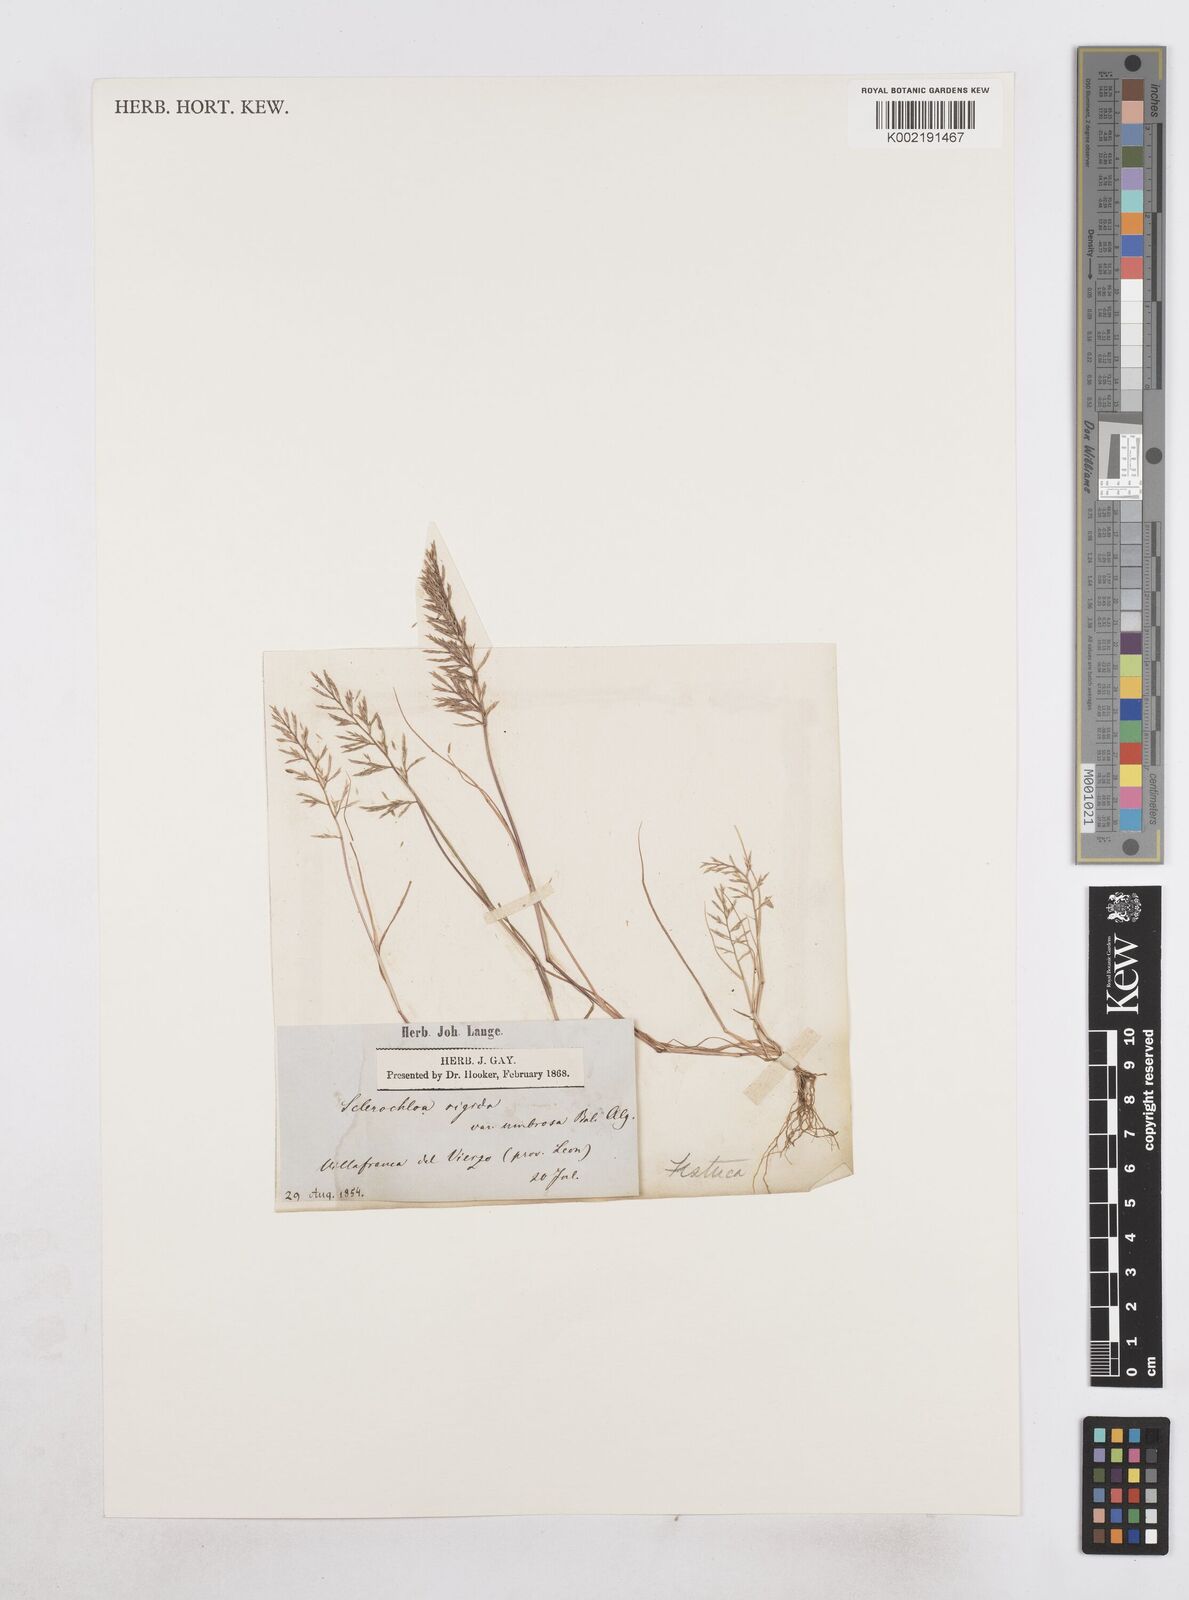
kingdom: Plantae
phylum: Tracheophyta
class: Liliopsida
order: Poales
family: Poaceae
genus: Catapodium
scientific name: Catapodium rigidum
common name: Fern-grass
